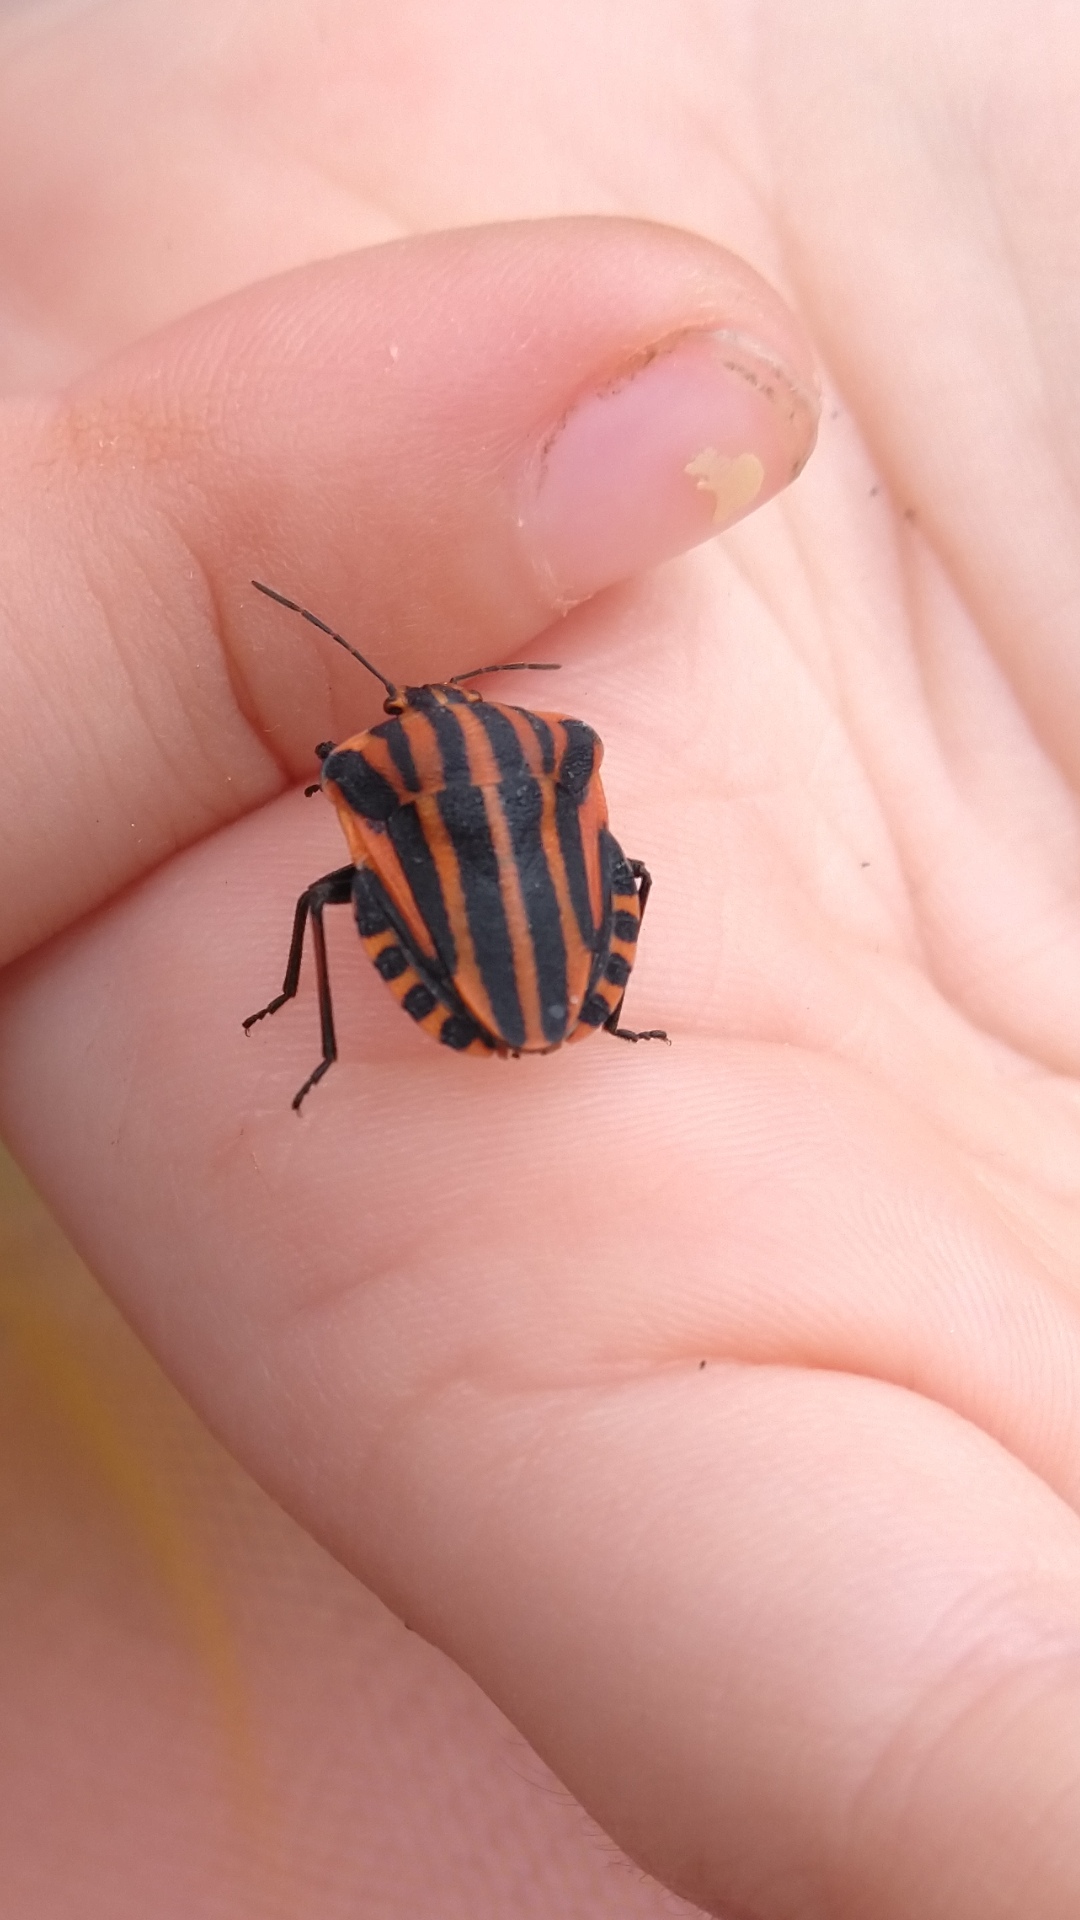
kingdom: Animalia
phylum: Arthropoda
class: Insecta
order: Hemiptera
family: Pentatomidae
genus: Graphosoma
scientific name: Graphosoma italicum
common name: Stribetæge
